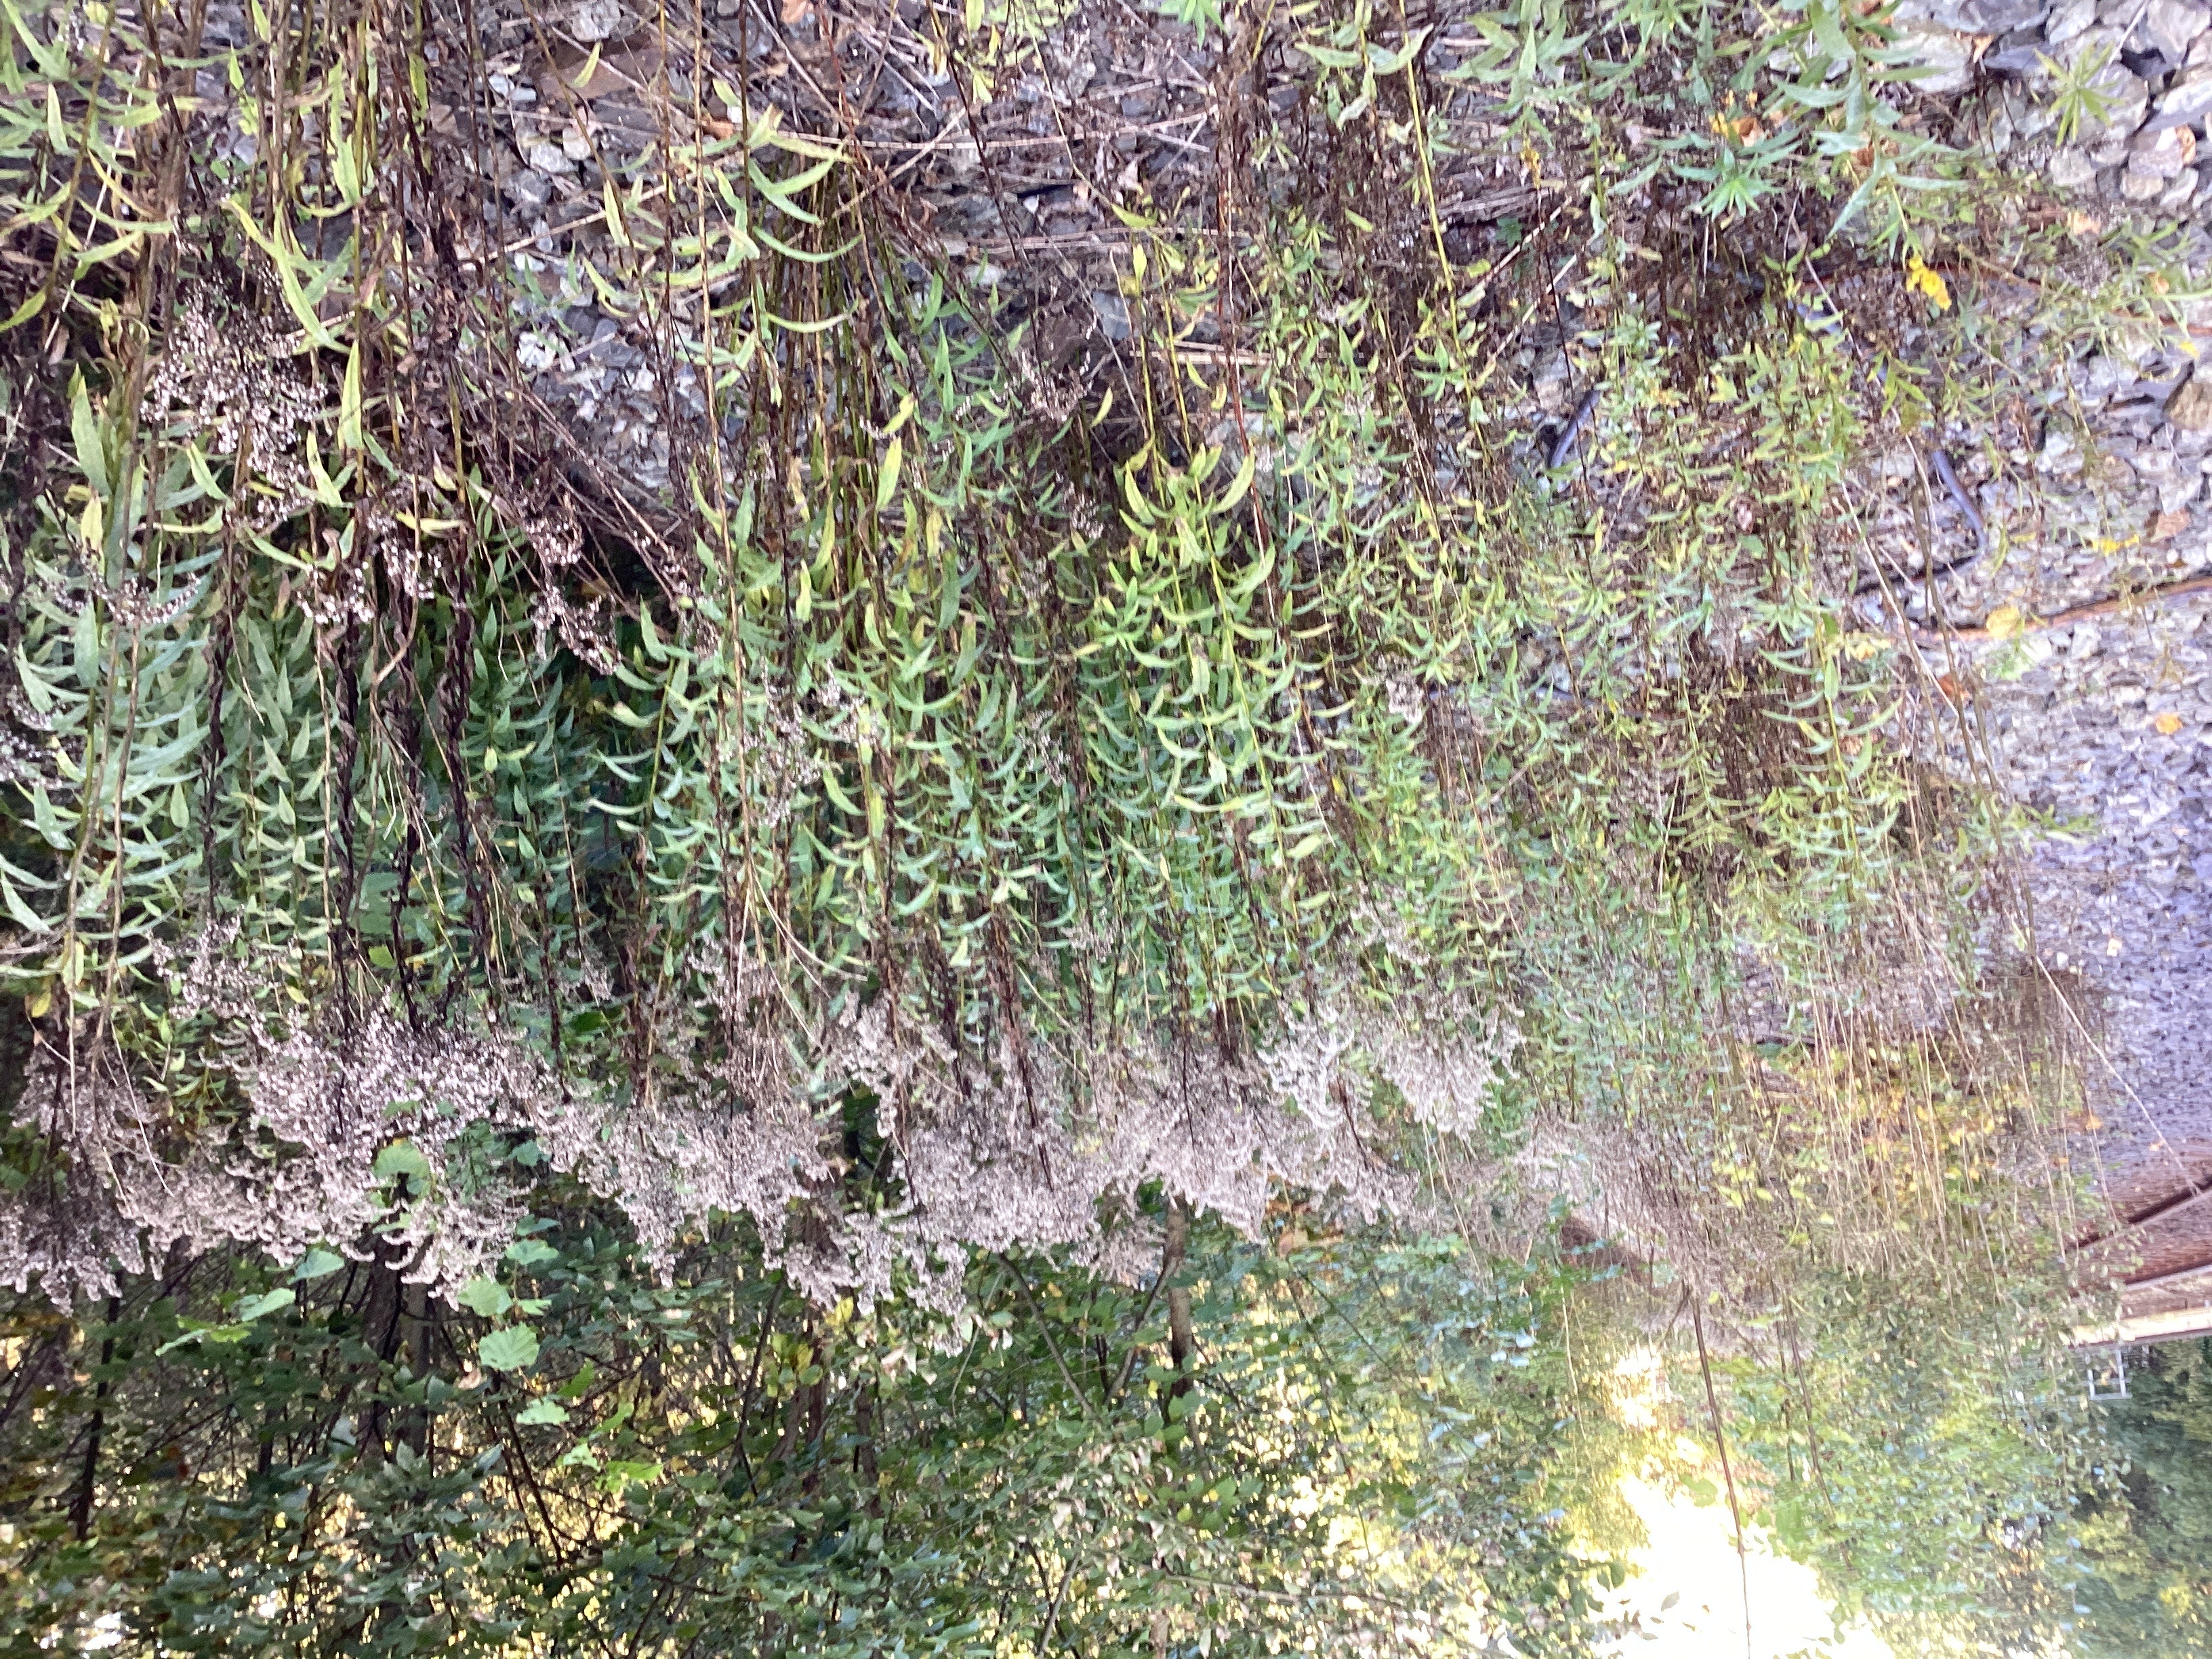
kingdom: Plantae
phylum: Tracheophyta
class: Magnoliopsida
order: Asterales
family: Asteraceae
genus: Solidago
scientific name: Solidago canadensis
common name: kanadagullris
